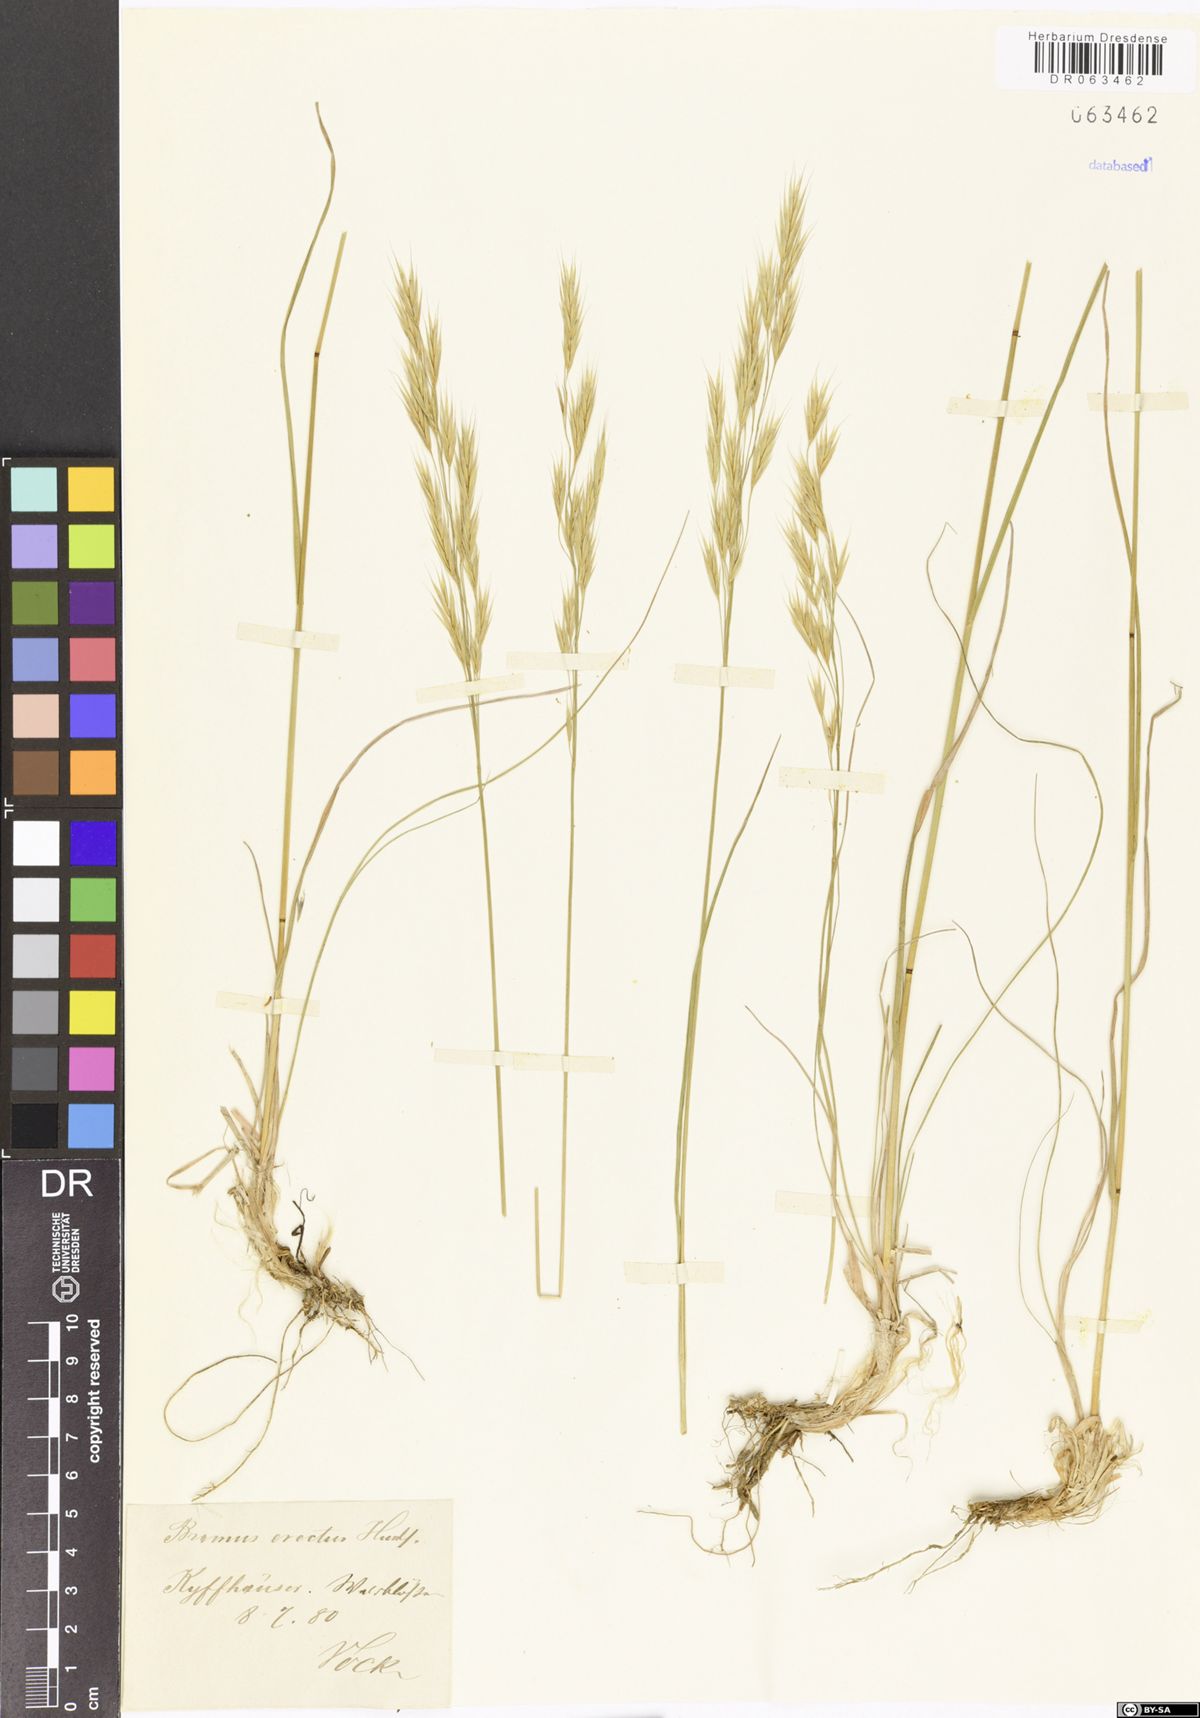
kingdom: Plantae
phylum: Tracheophyta
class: Liliopsida
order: Poales
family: Poaceae
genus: Bromus
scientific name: Bromus erectus
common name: Erect brome
